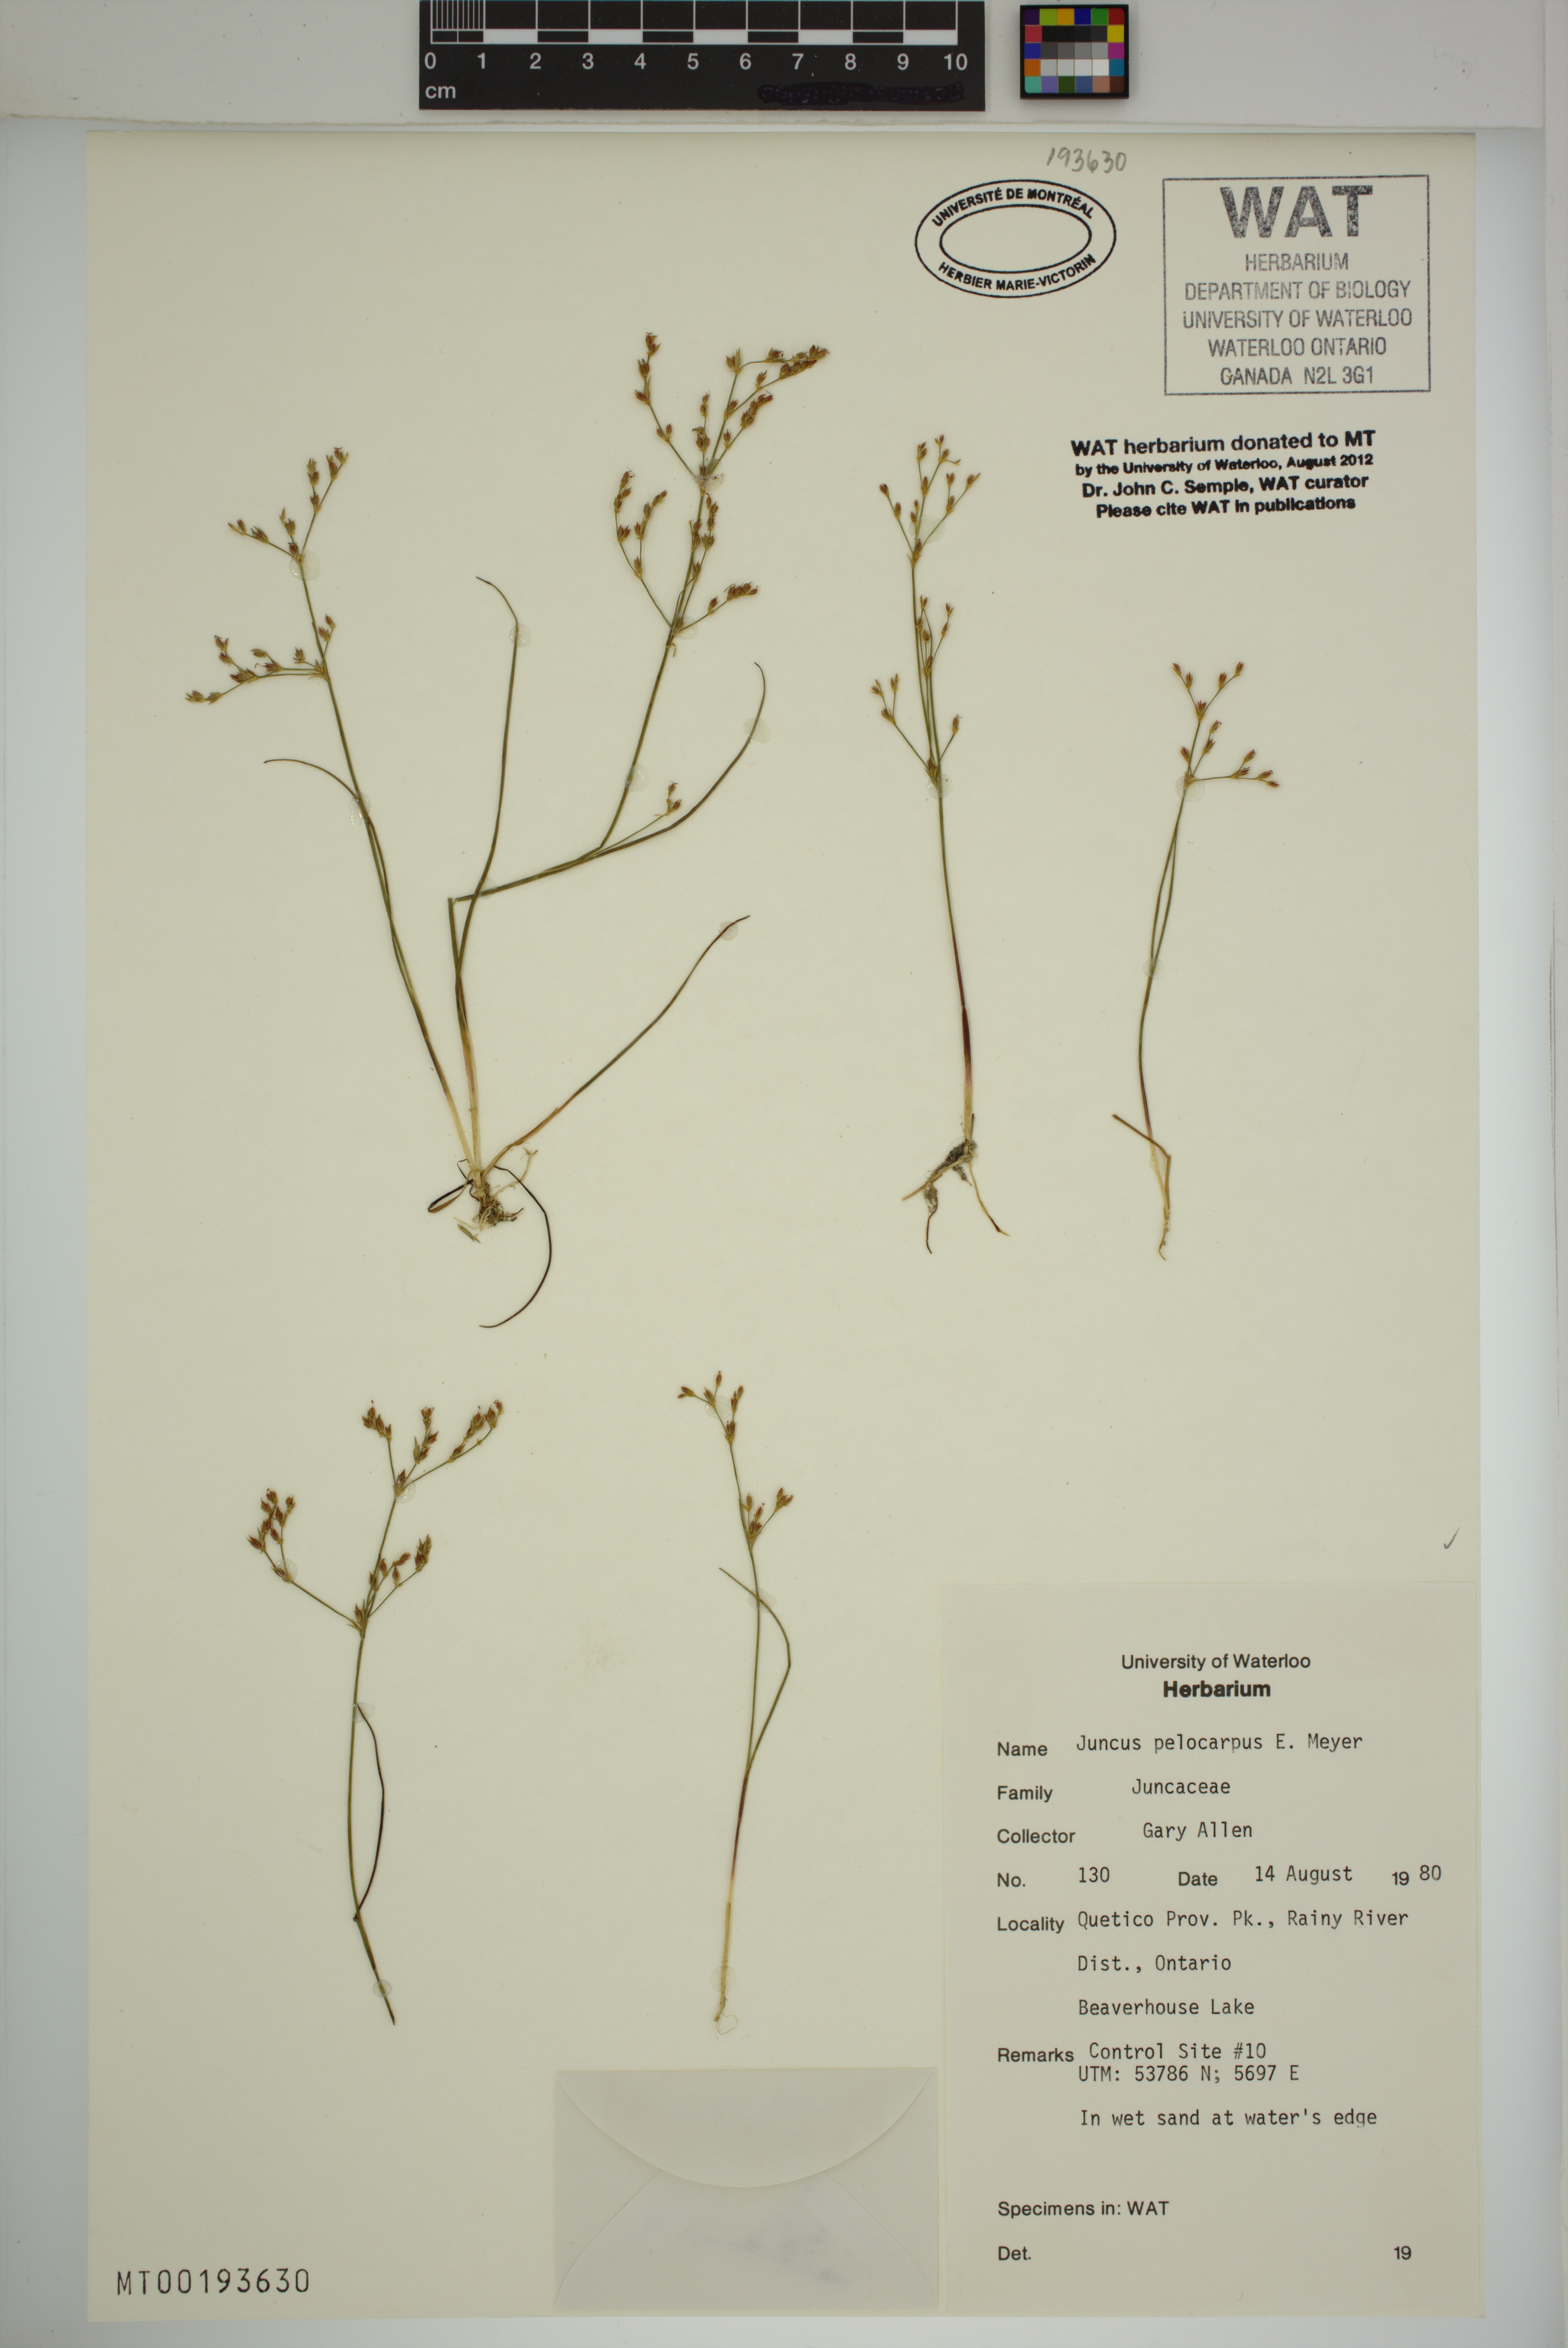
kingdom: Plantae
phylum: Tracheophyta
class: Liliopsida
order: Poales
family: Juncaceae
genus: Juncus
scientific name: Juncus pelocarpus
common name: Brown-fruited rush
